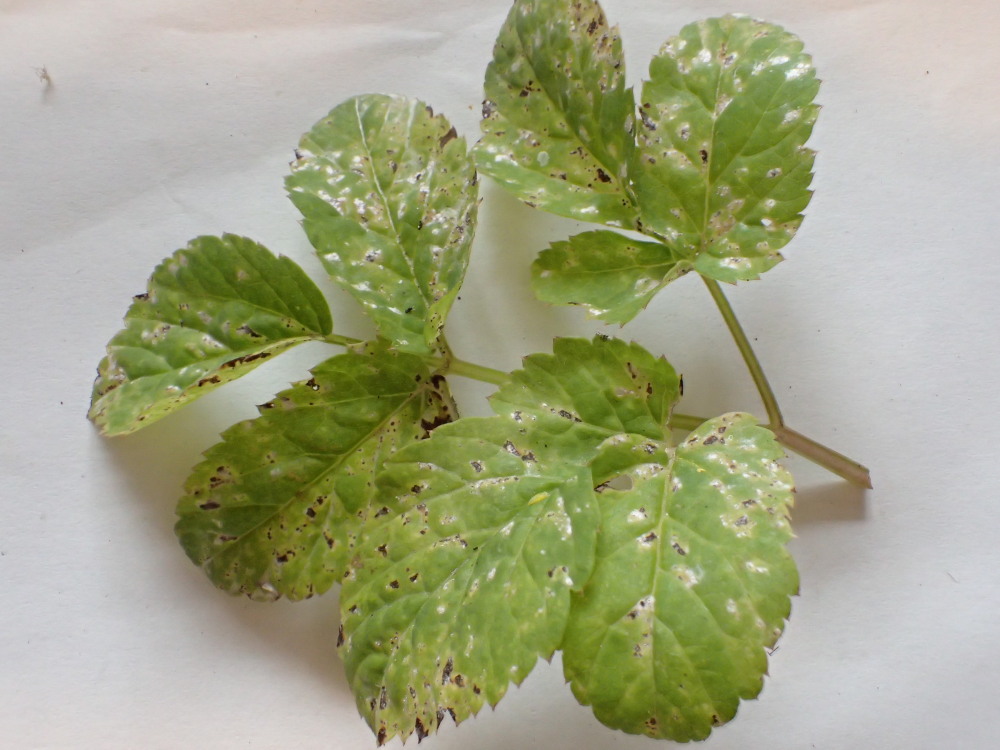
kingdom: Fungi
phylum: Ascomycota
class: Dothideomycetes
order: Mycosphaerellales
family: Mycosphaerellaceae
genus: Mycosphaerella
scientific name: Mycosphaerella podagrariae
